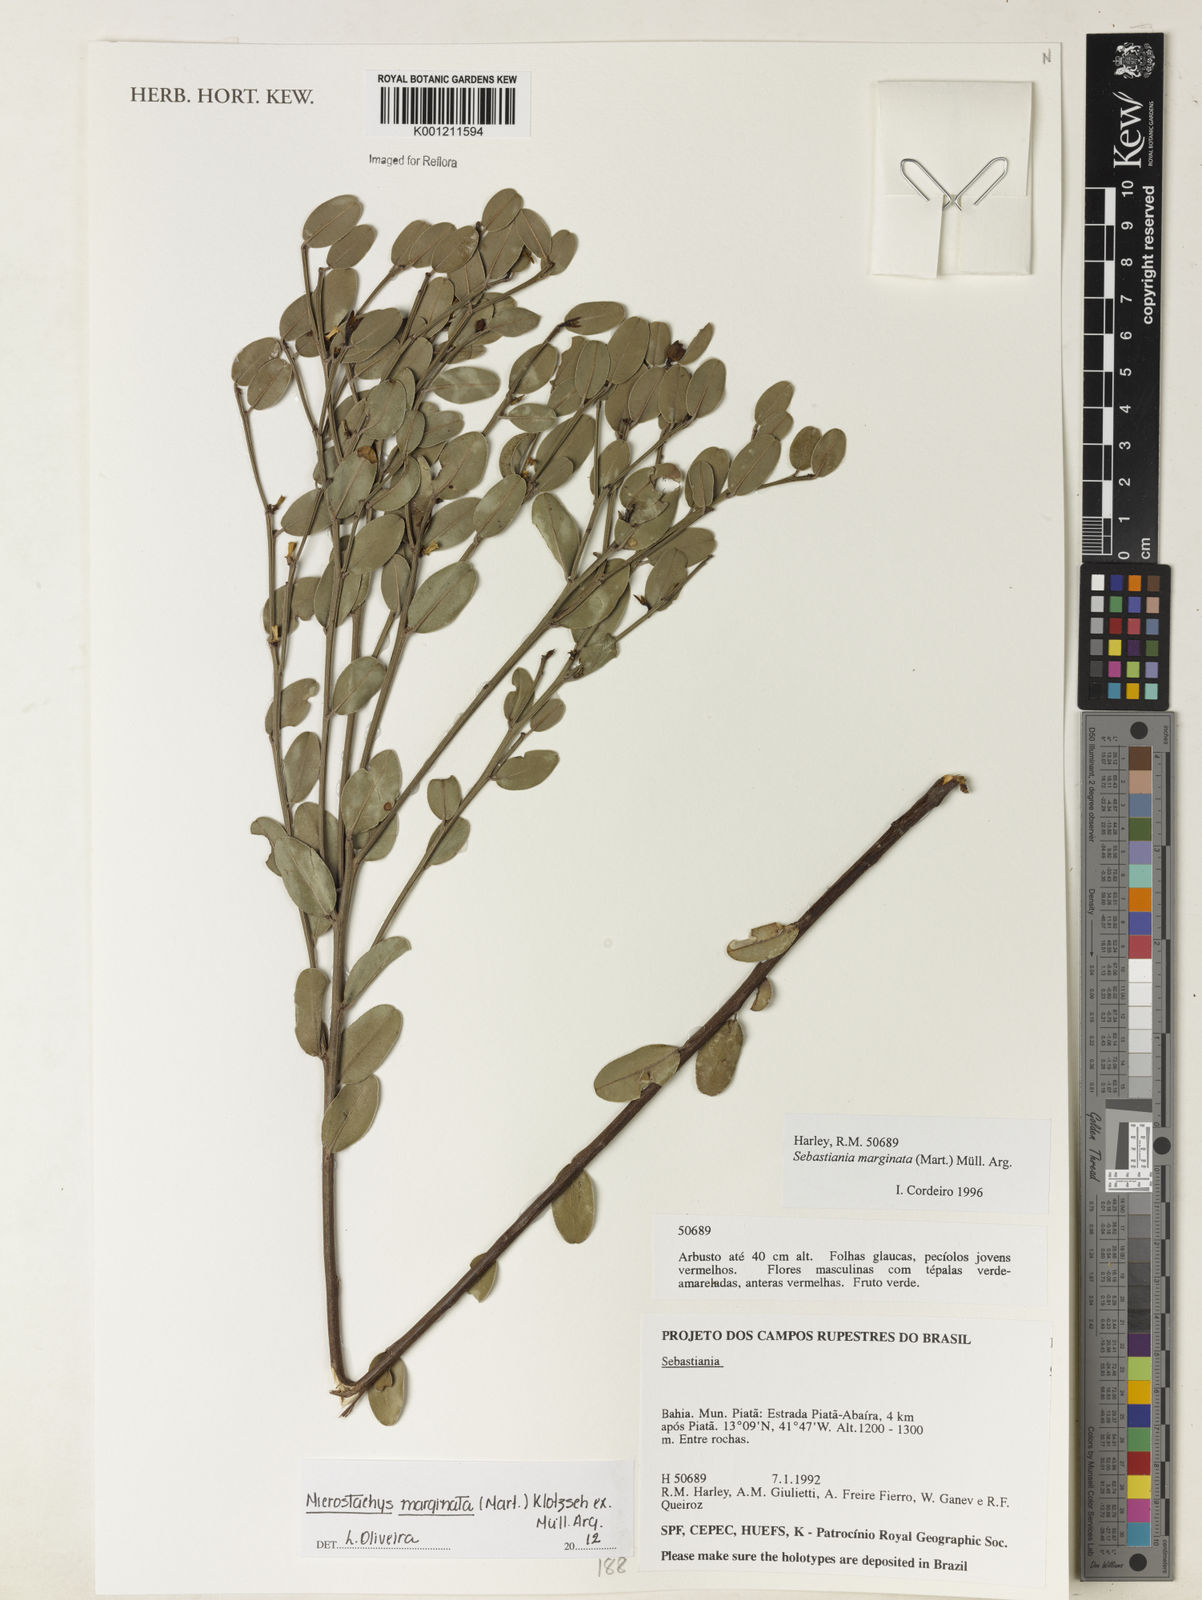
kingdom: Plantae
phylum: Tracheophyta
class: Magnoliopsida
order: Malpighiales
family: Euphorbiaceae
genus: Microstachys
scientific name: Microstachys
